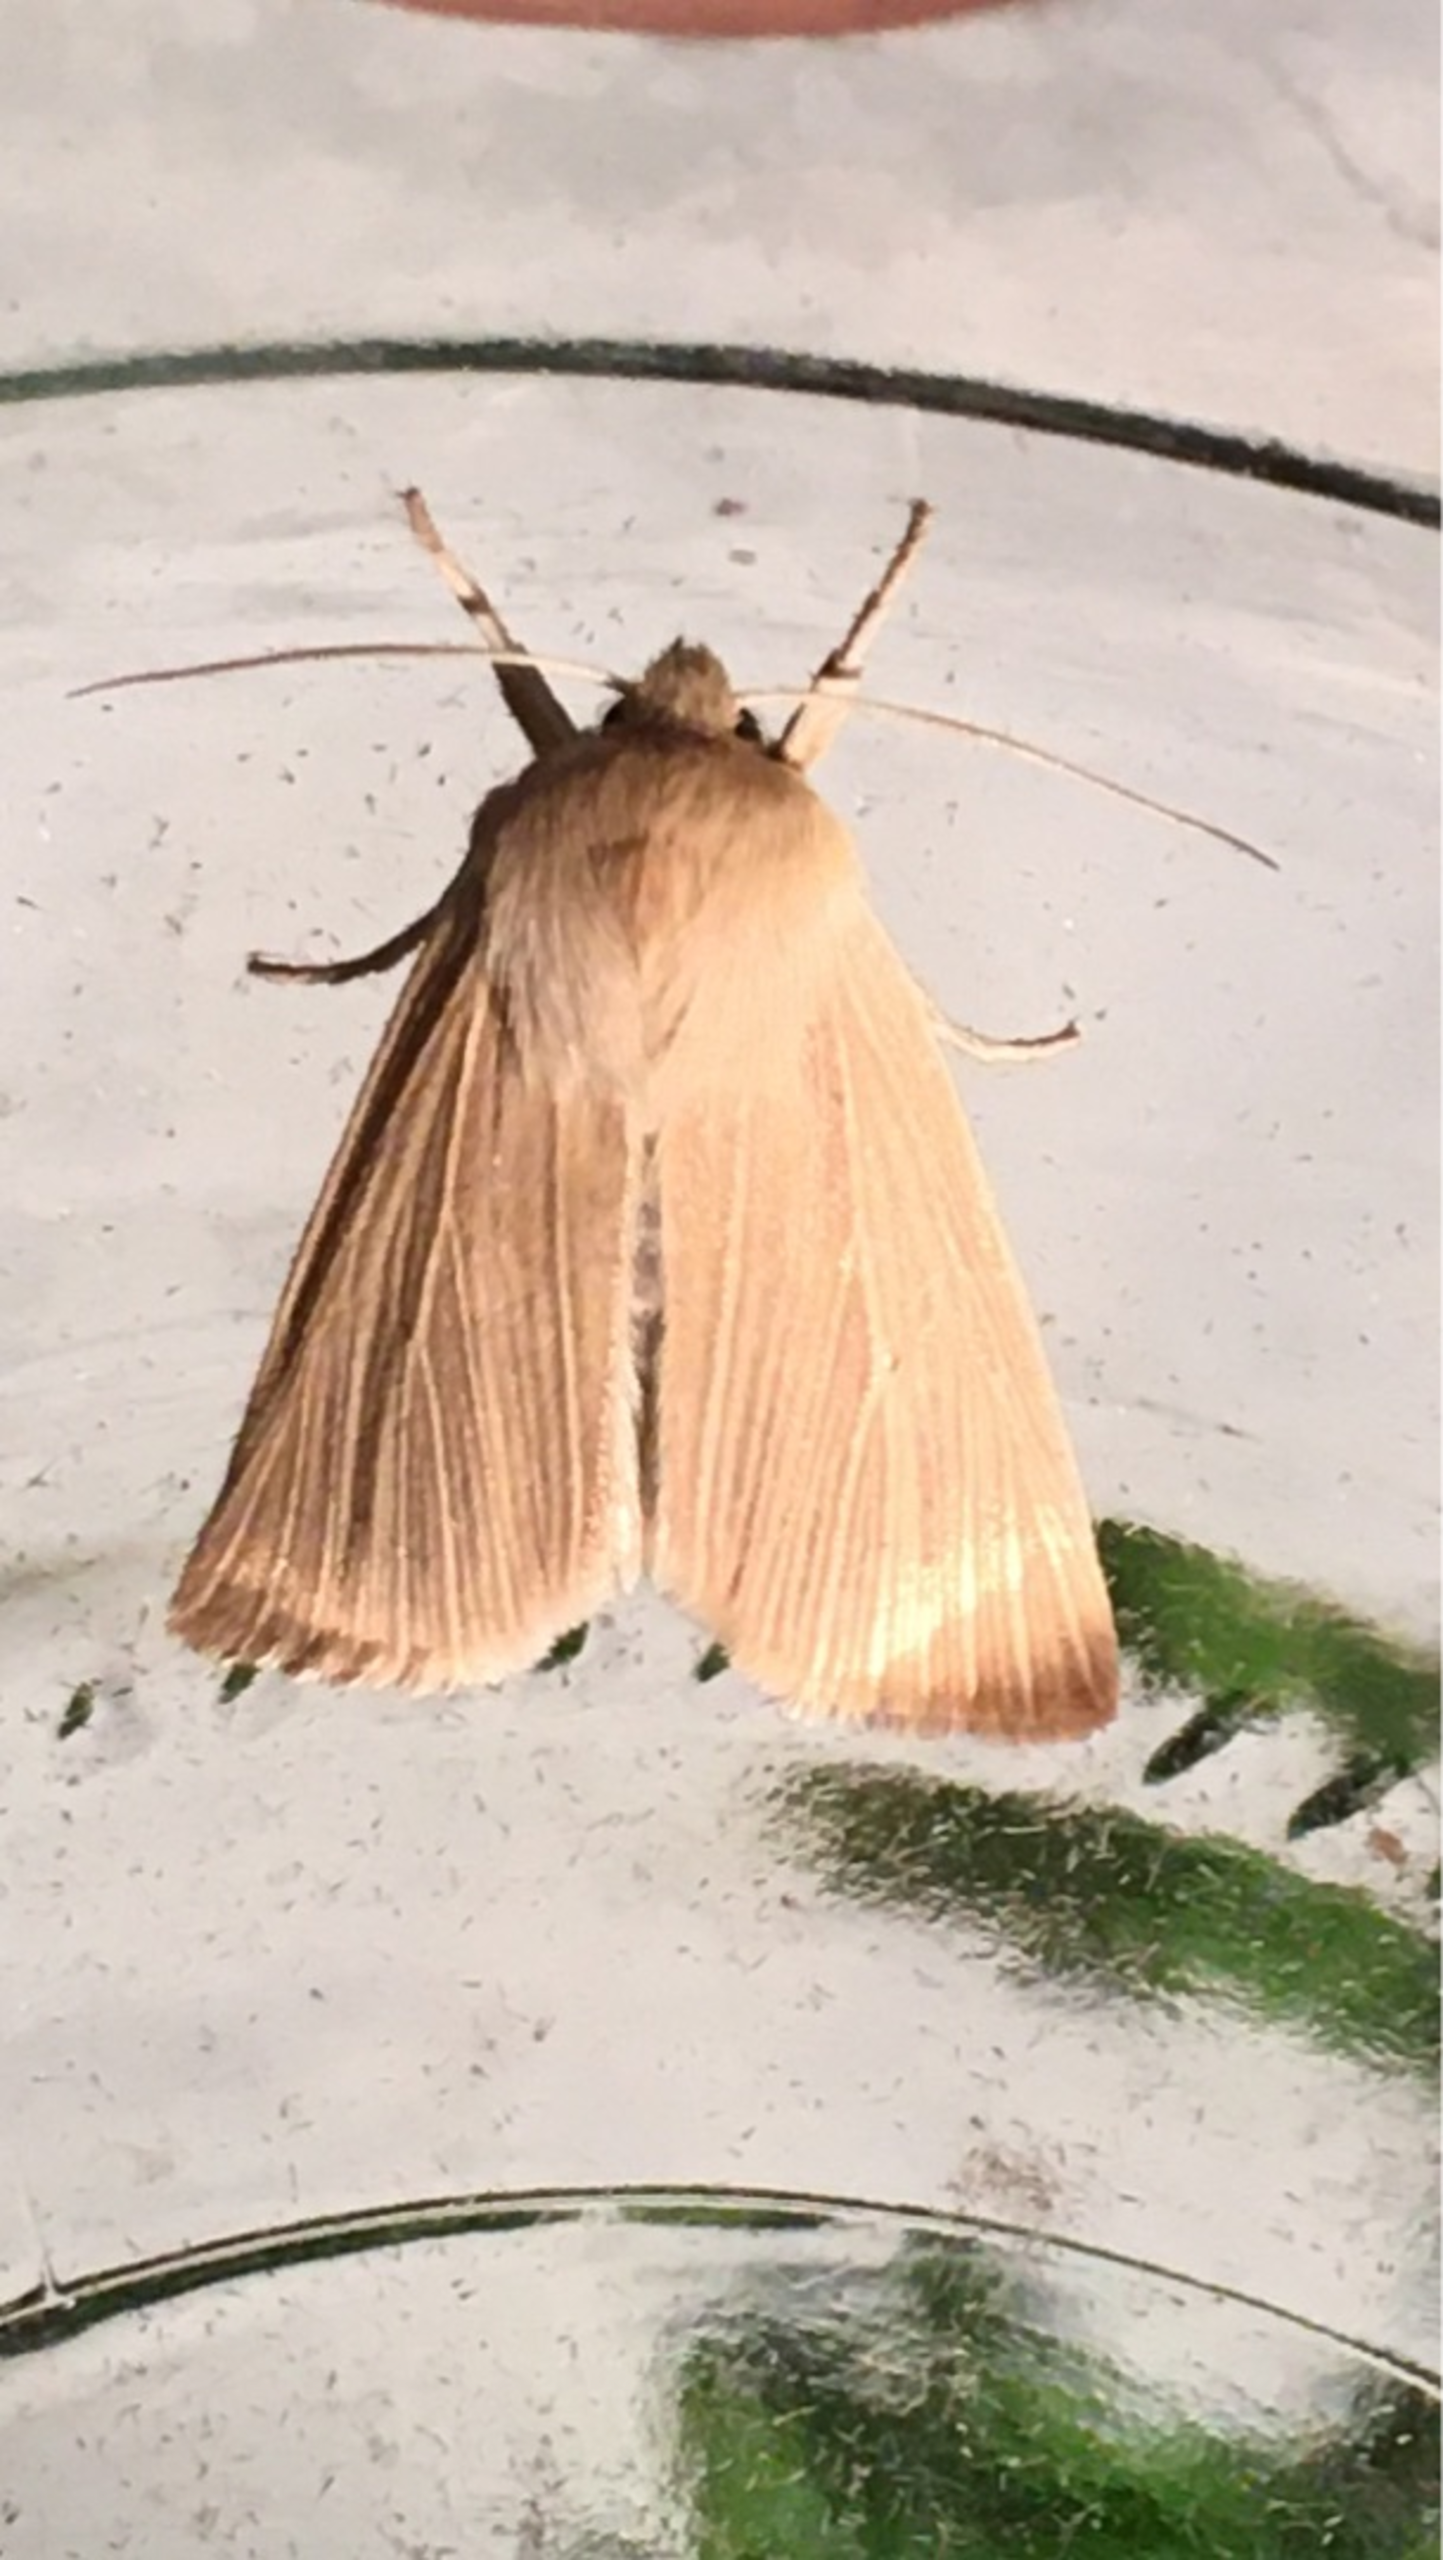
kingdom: Animalia
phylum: Arthropoda
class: Insecta
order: Lepidoptera
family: Noctuidae
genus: Mythimna
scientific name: Mythimna pallens
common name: Halmugle
